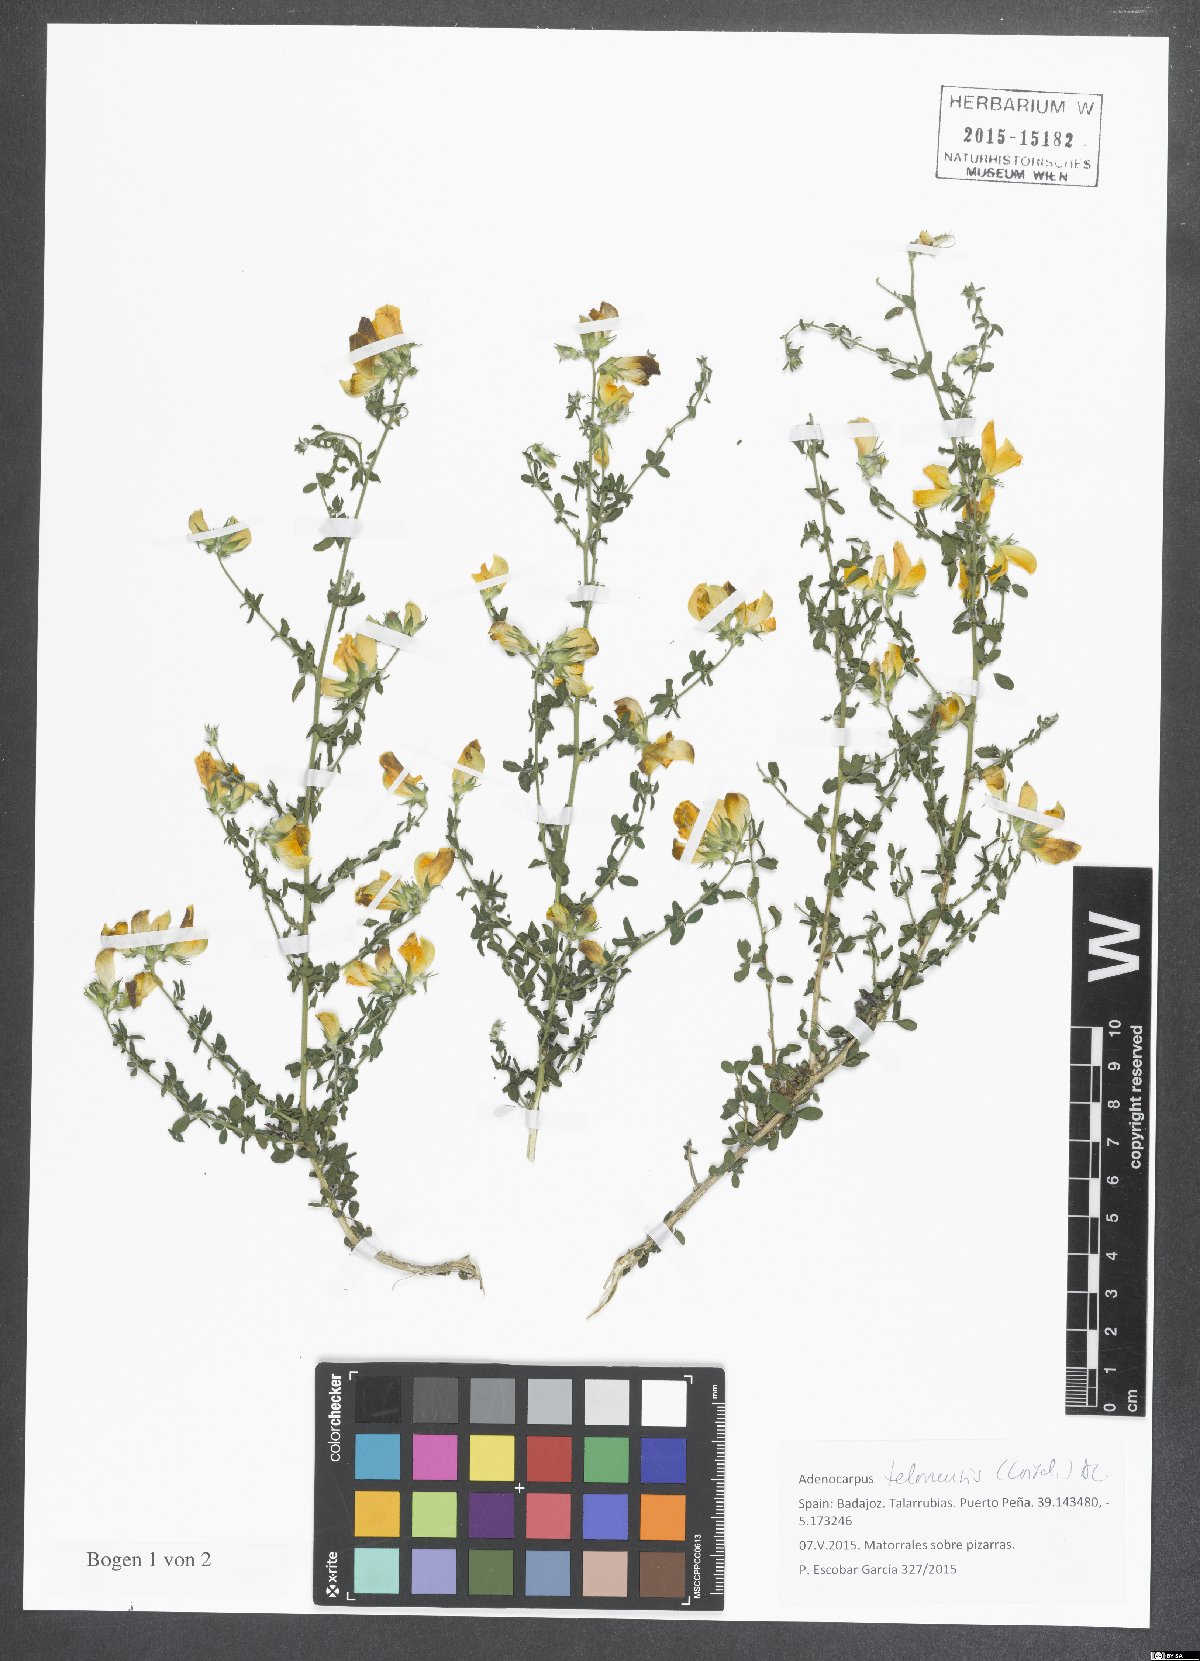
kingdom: Plantae
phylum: Tracheophyta
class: Magnoliopsida
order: Fabales
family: Fabaceae
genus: Adenocarpus
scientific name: Adenocarpus telonensis
